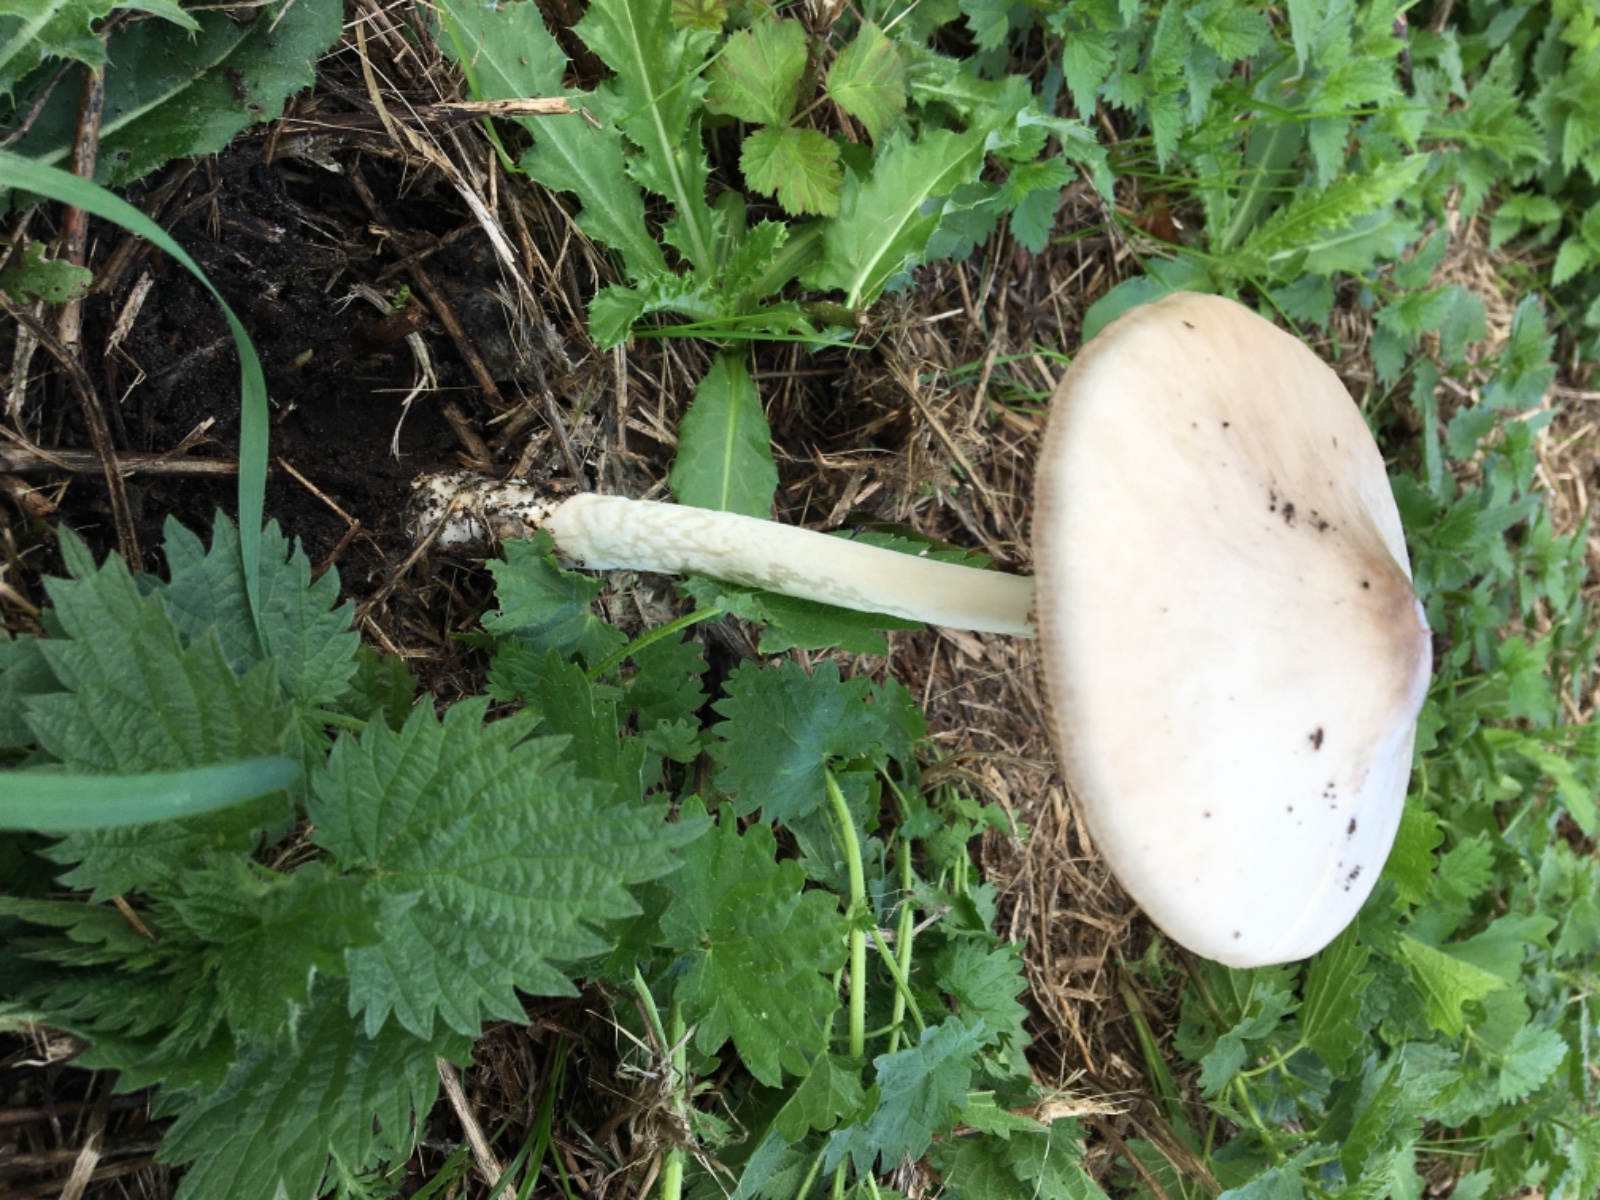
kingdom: Fungi
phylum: Basidiomycota
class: Agaricomycetes
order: Agaricales
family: Pluteaceae
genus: Volvopluteus
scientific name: Volvopluteus gloiocephalus
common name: høj posesvamp
